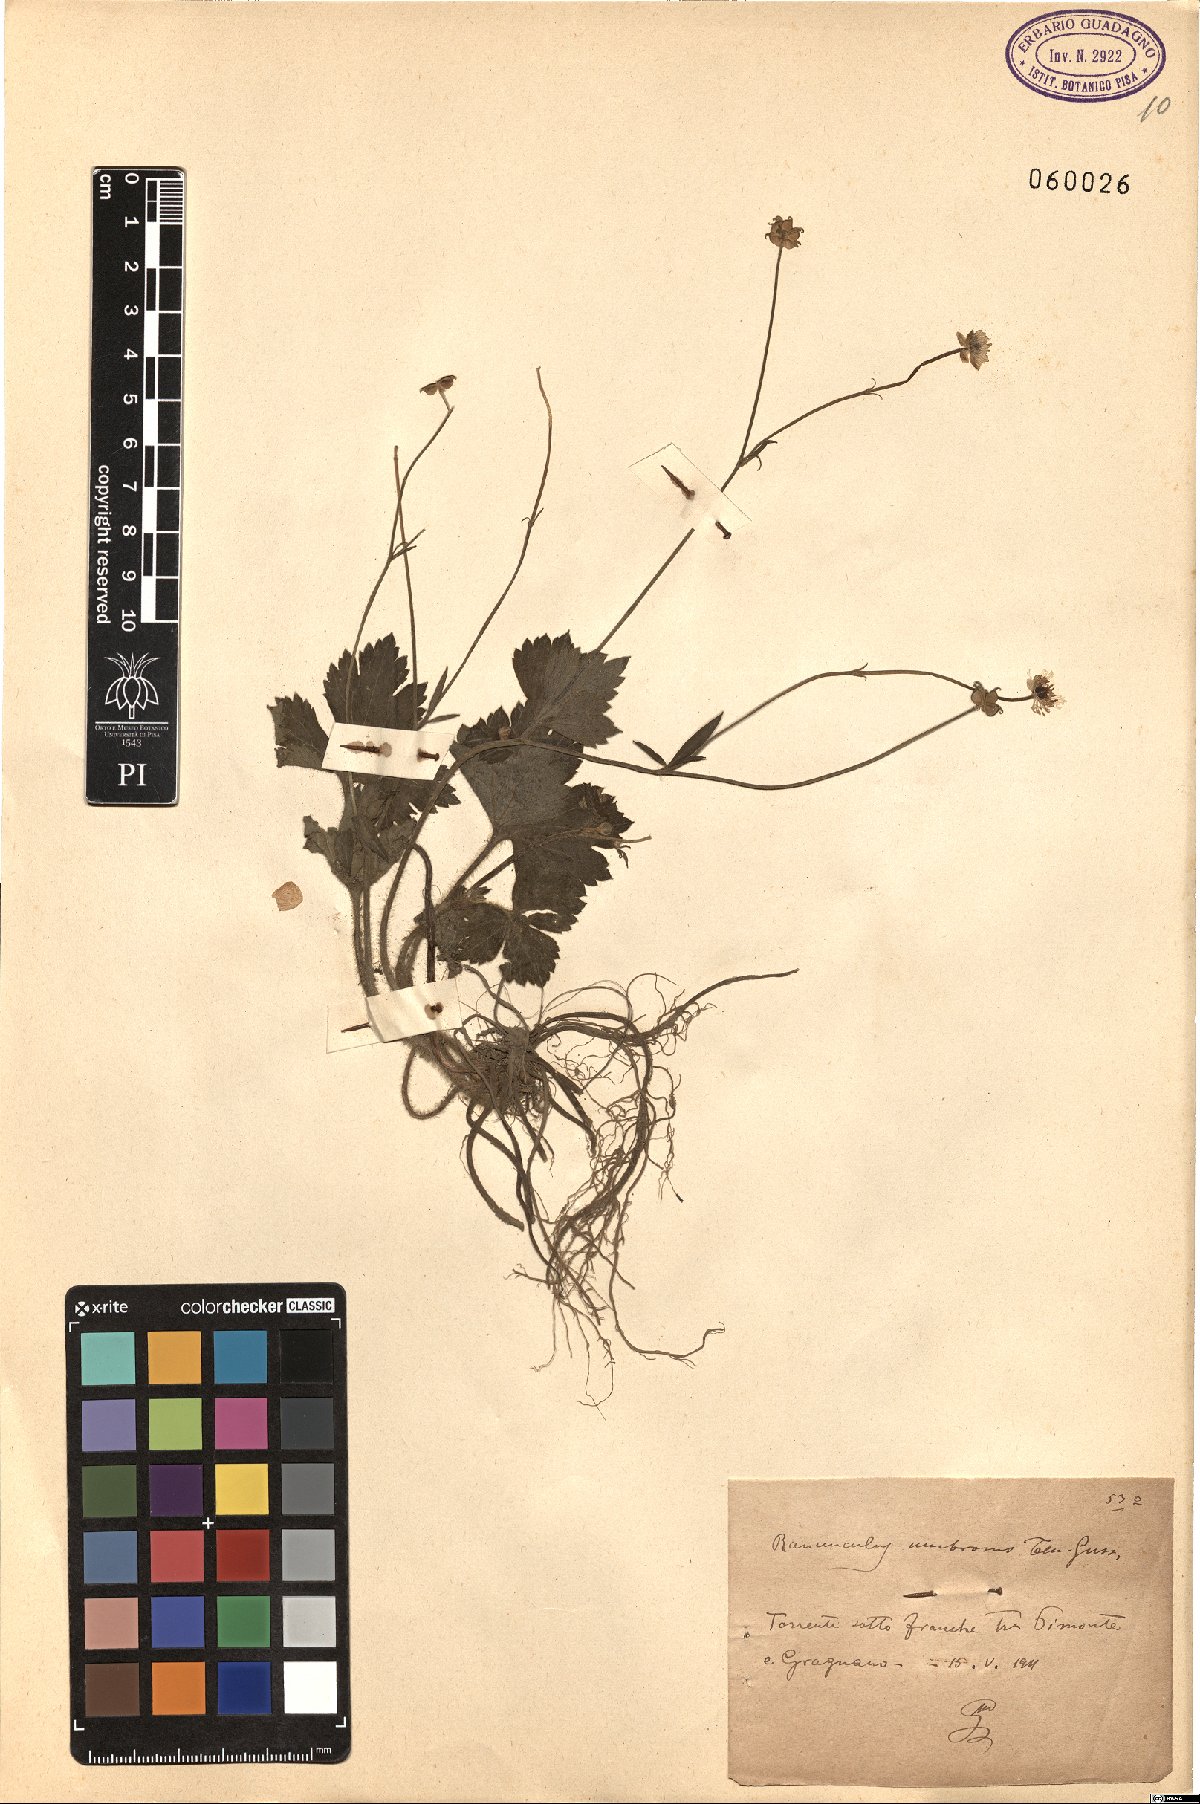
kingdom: Plantae
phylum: Tracheophyta
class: Magnoliopsida
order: Ranunculales
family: Ranunculaceae
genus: Ranunculus
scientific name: Ranunculus lanuginosus
